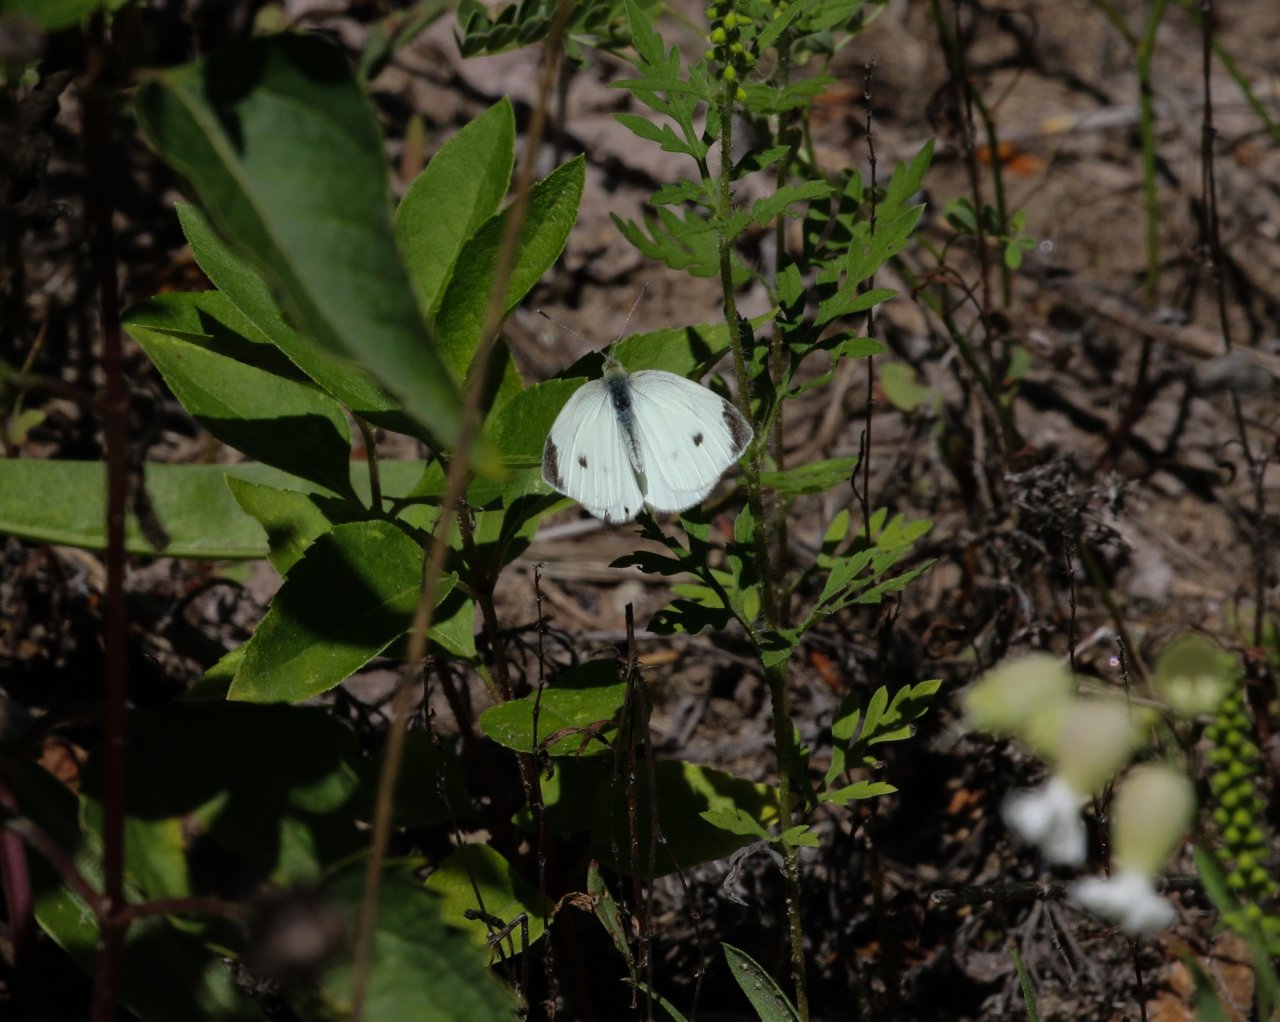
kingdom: Animalia
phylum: Arthropoda
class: Insecta
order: Lepidoptera
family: Pieridae
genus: Pieris
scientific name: Pieris rapae
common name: Cabbage White
